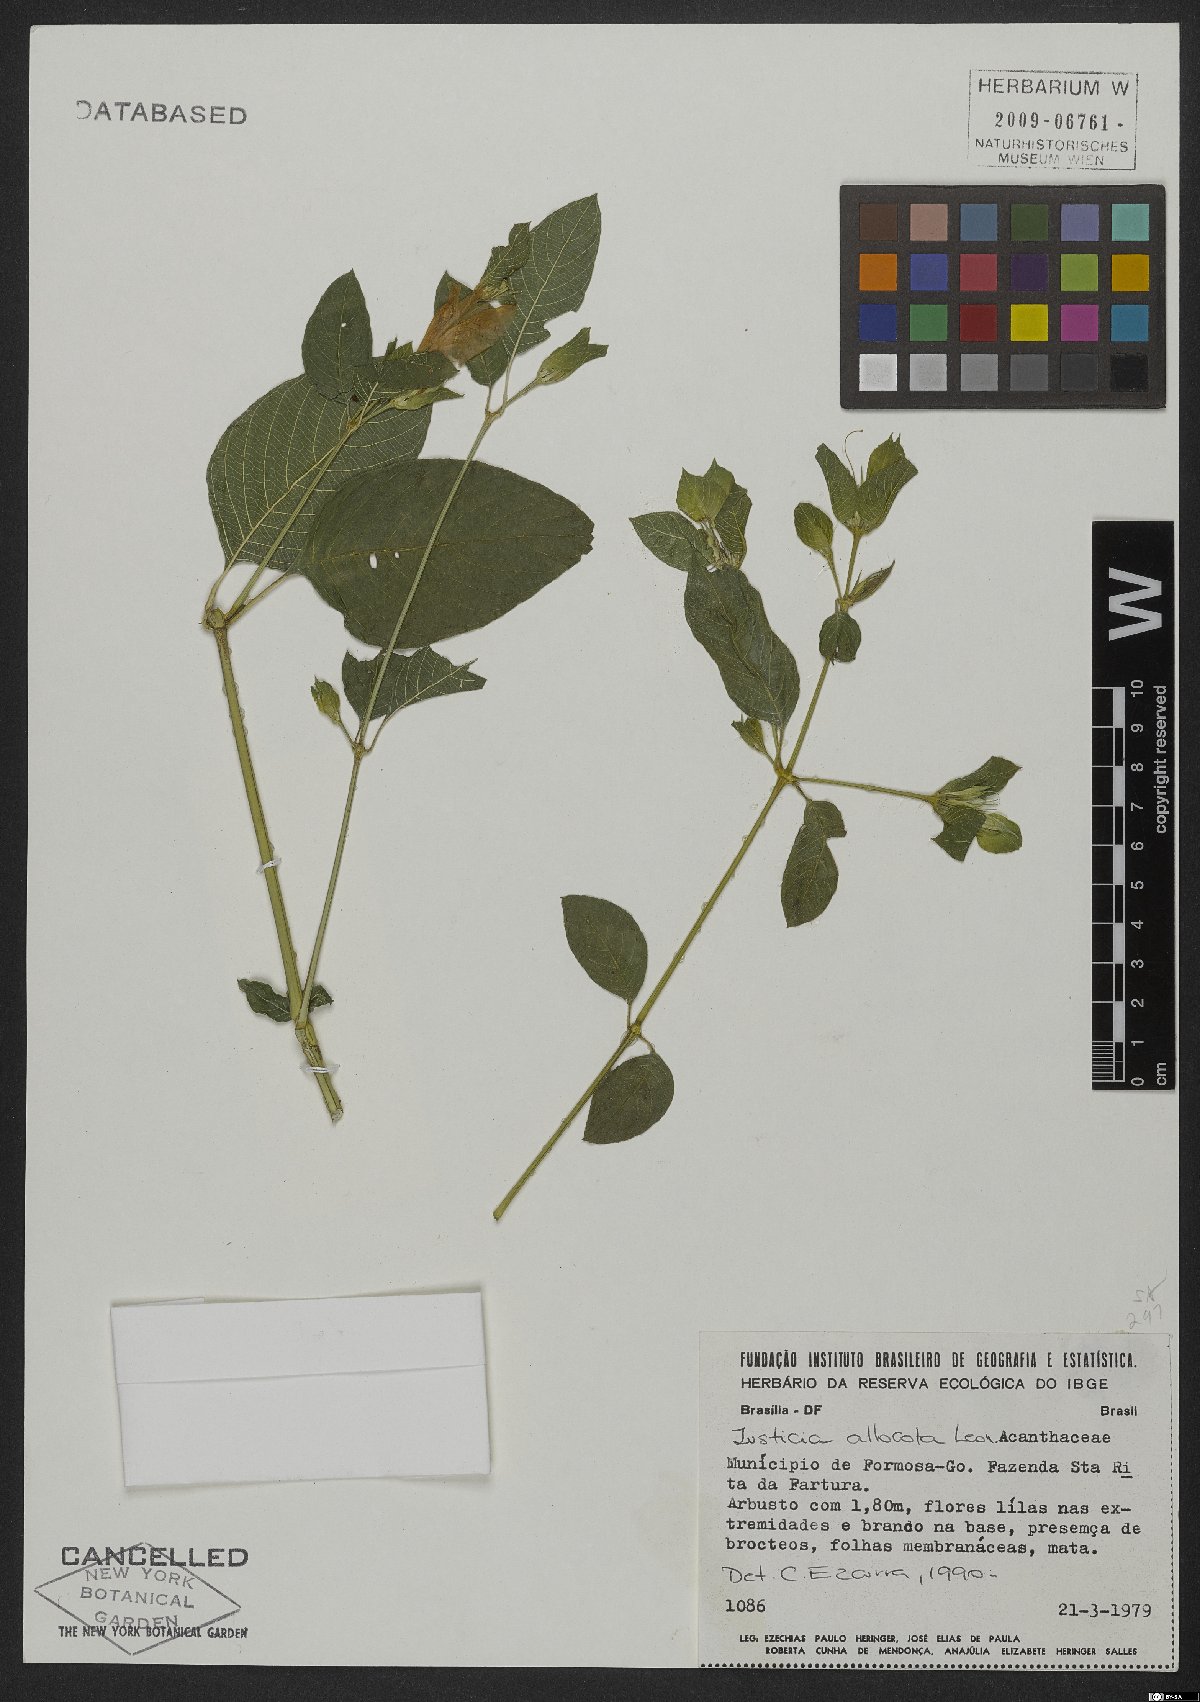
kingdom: Plantae
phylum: Tracheophyta
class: Magnoliopsida
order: Lamiales
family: Acanthaceae
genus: Justicia
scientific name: Justicia thunbergioides
